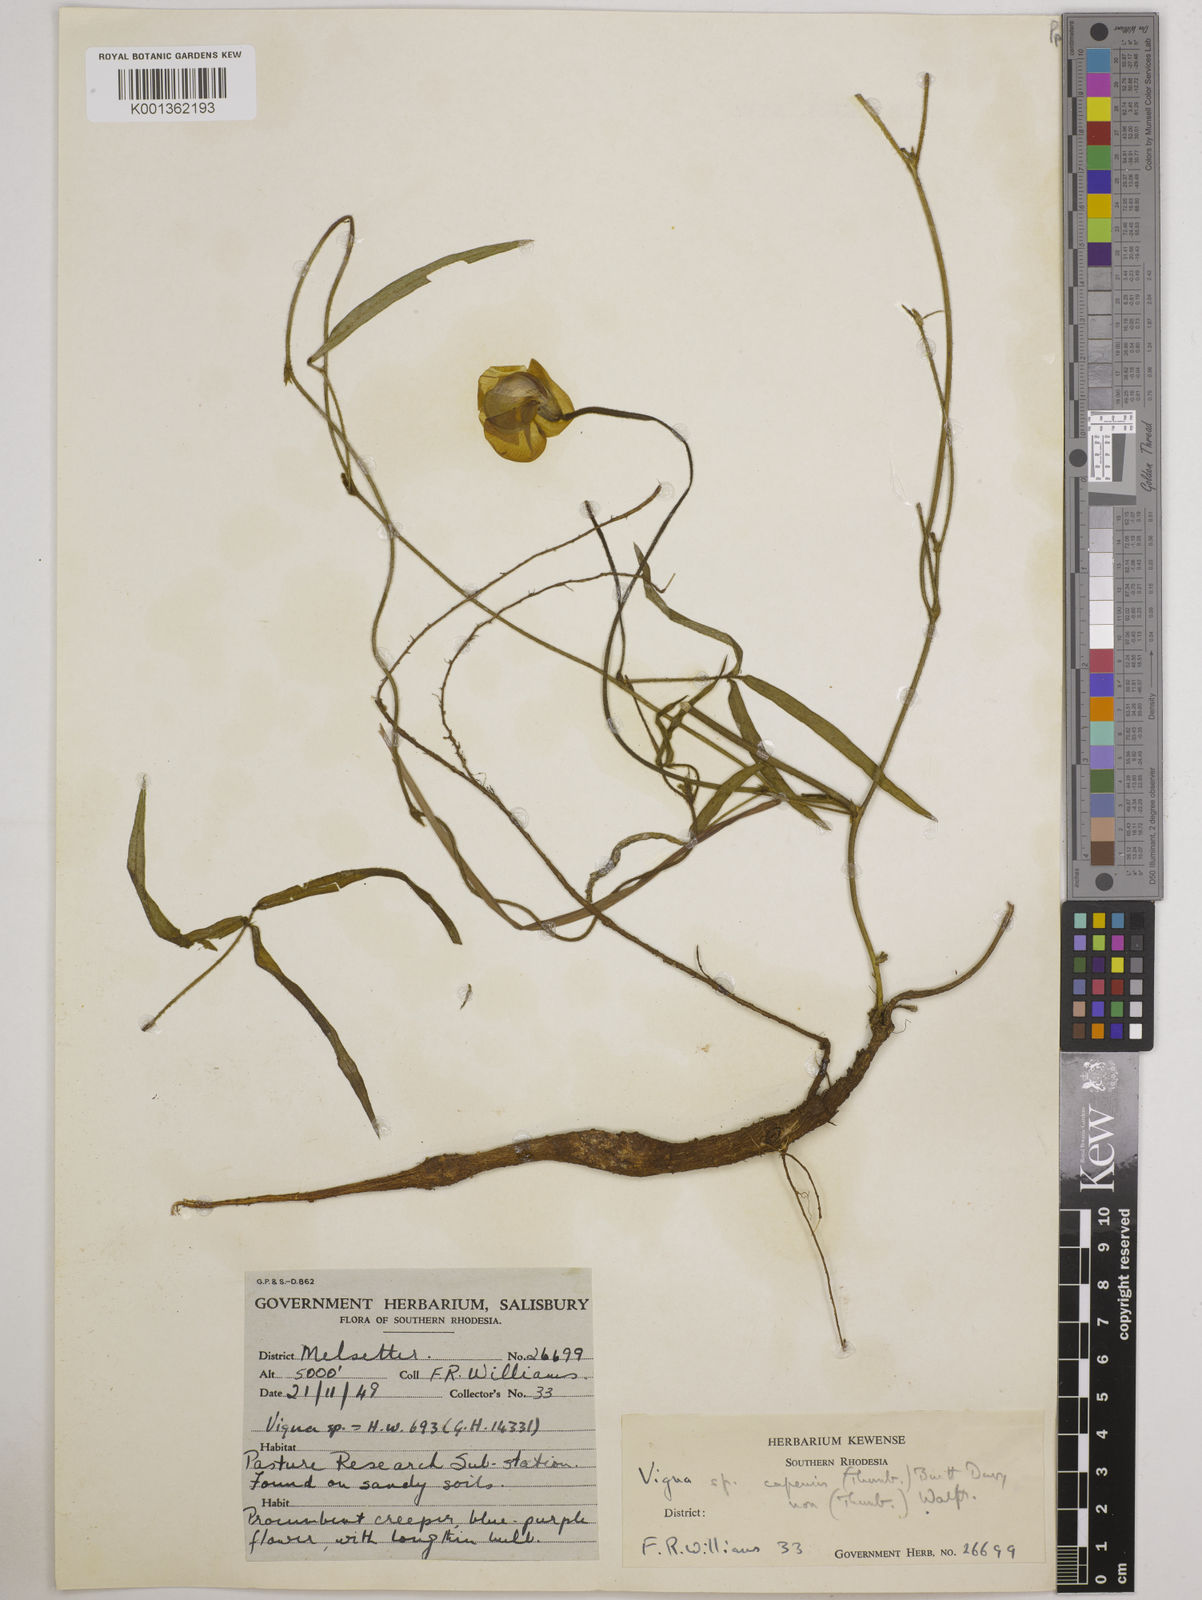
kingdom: Plantae
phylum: Tracheophyta
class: Magnoliopsida
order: Fabales
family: Fabaceae
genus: Vigna
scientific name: Vigna vexillata
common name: Zombi pea
